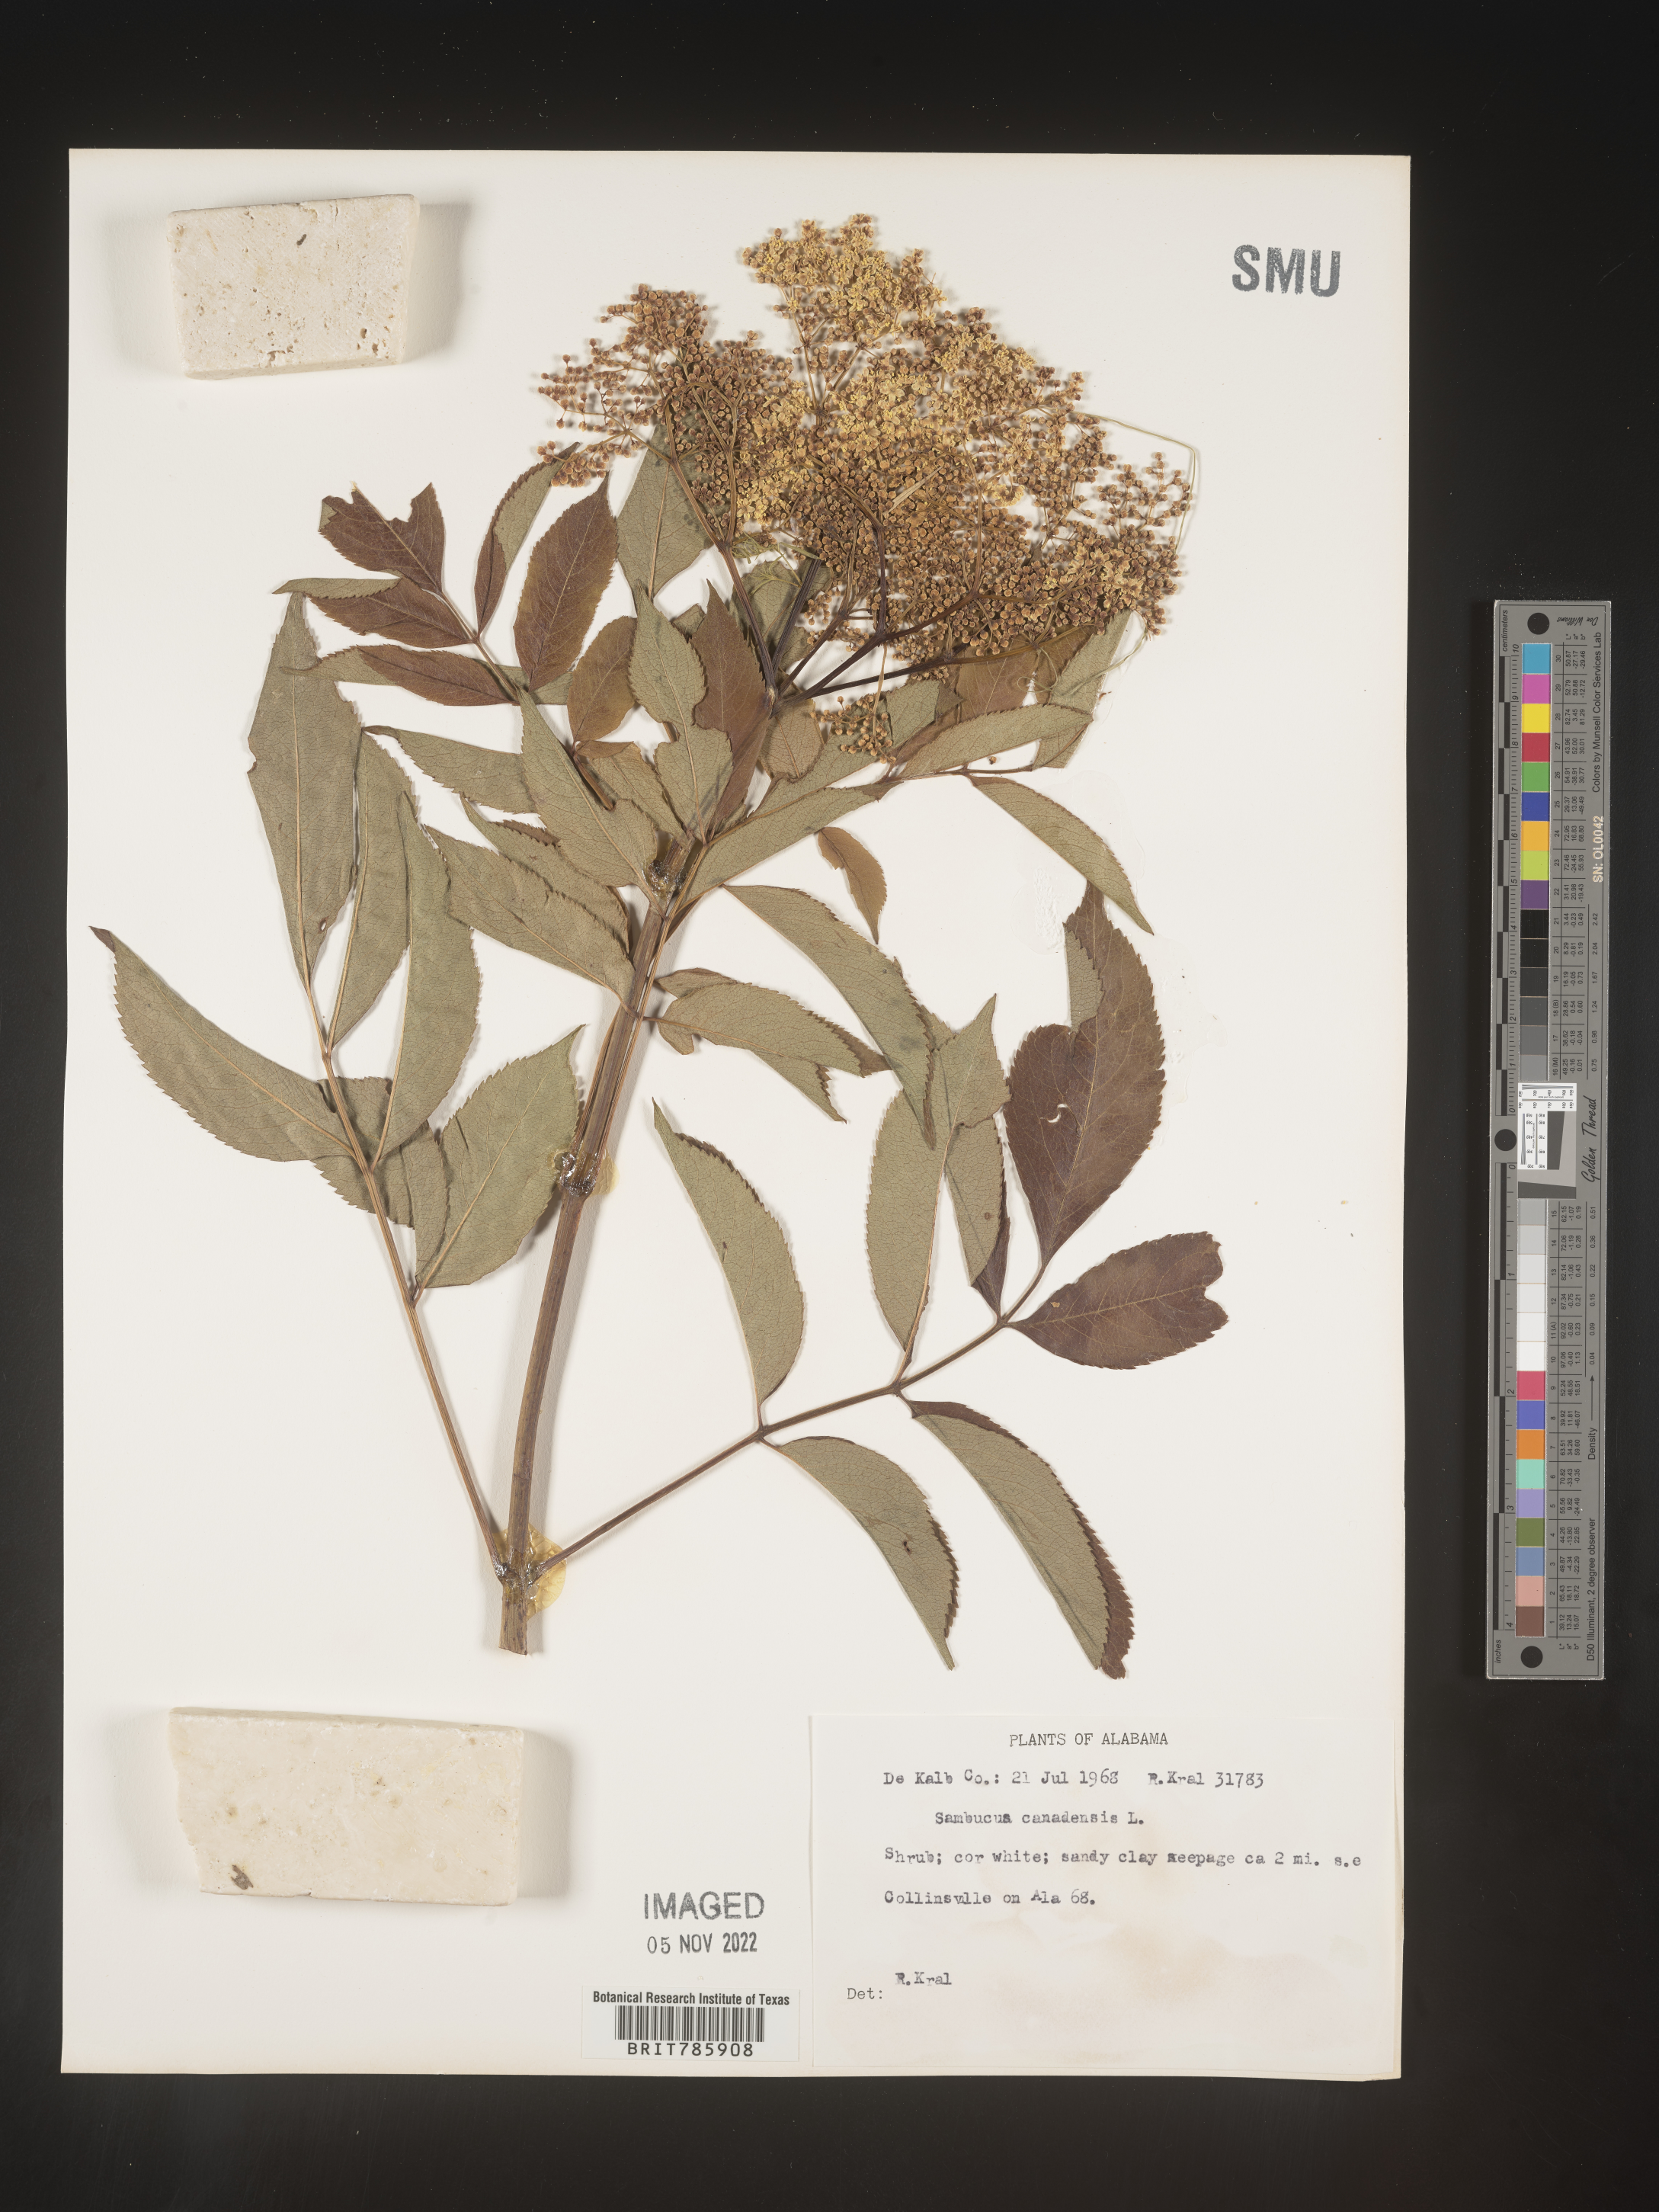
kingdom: Plantae
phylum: Tracheophyta
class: Magnoliopsida
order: Dipsacales
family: Viburnaceae
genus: Sambucus
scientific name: Sambucus nigra
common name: Elder
